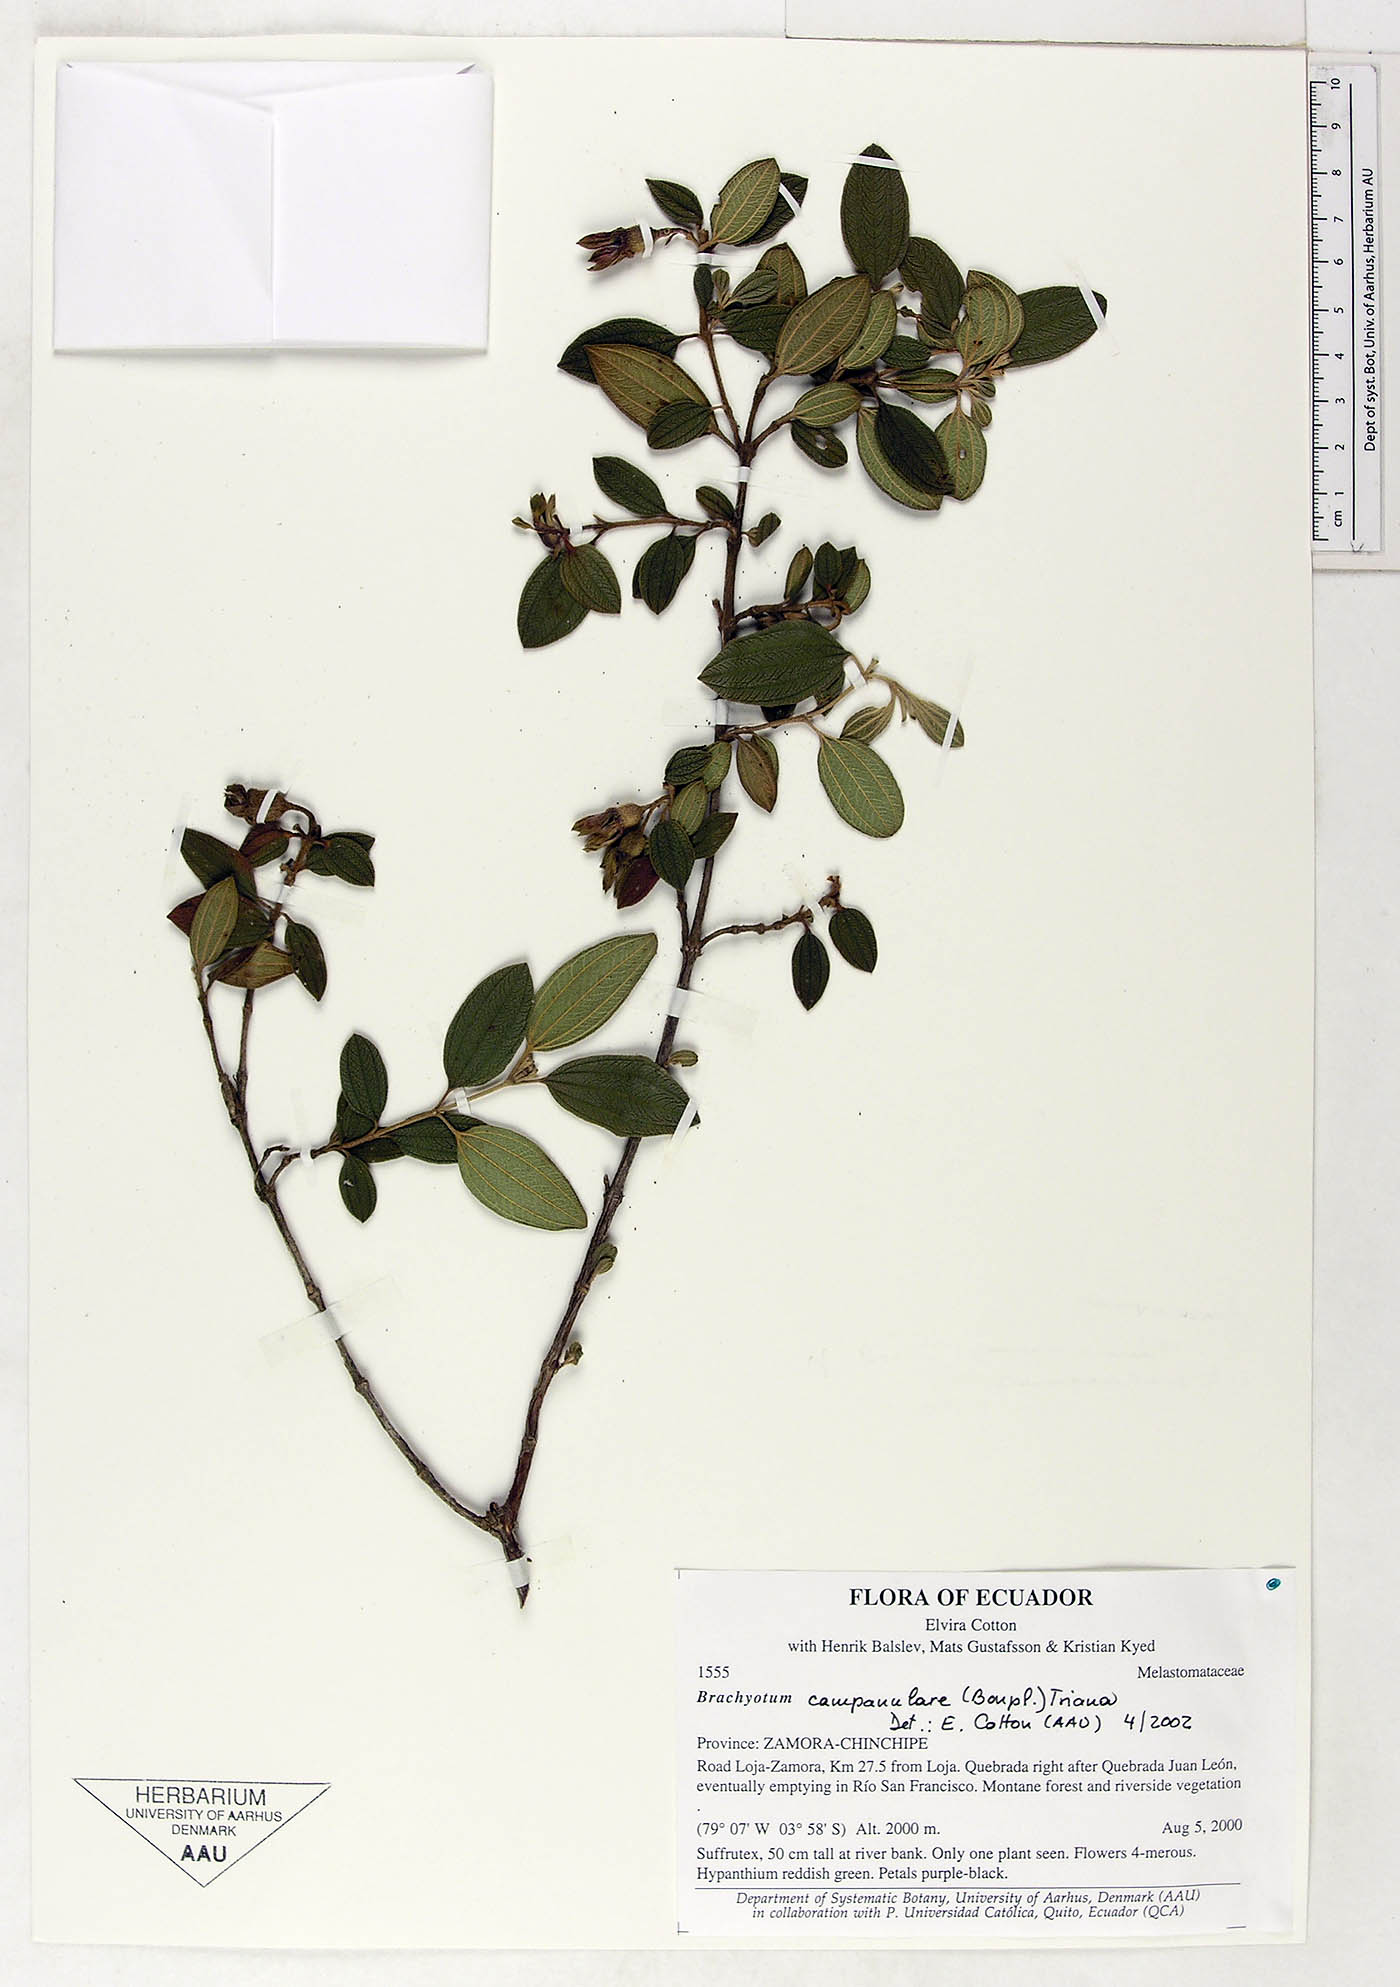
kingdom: Plantae
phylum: Tracheophyta
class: Magnoliopsida
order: Myrtales
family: Melastomataceae
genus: Brachyotum
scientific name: Brachyotum campanulare
